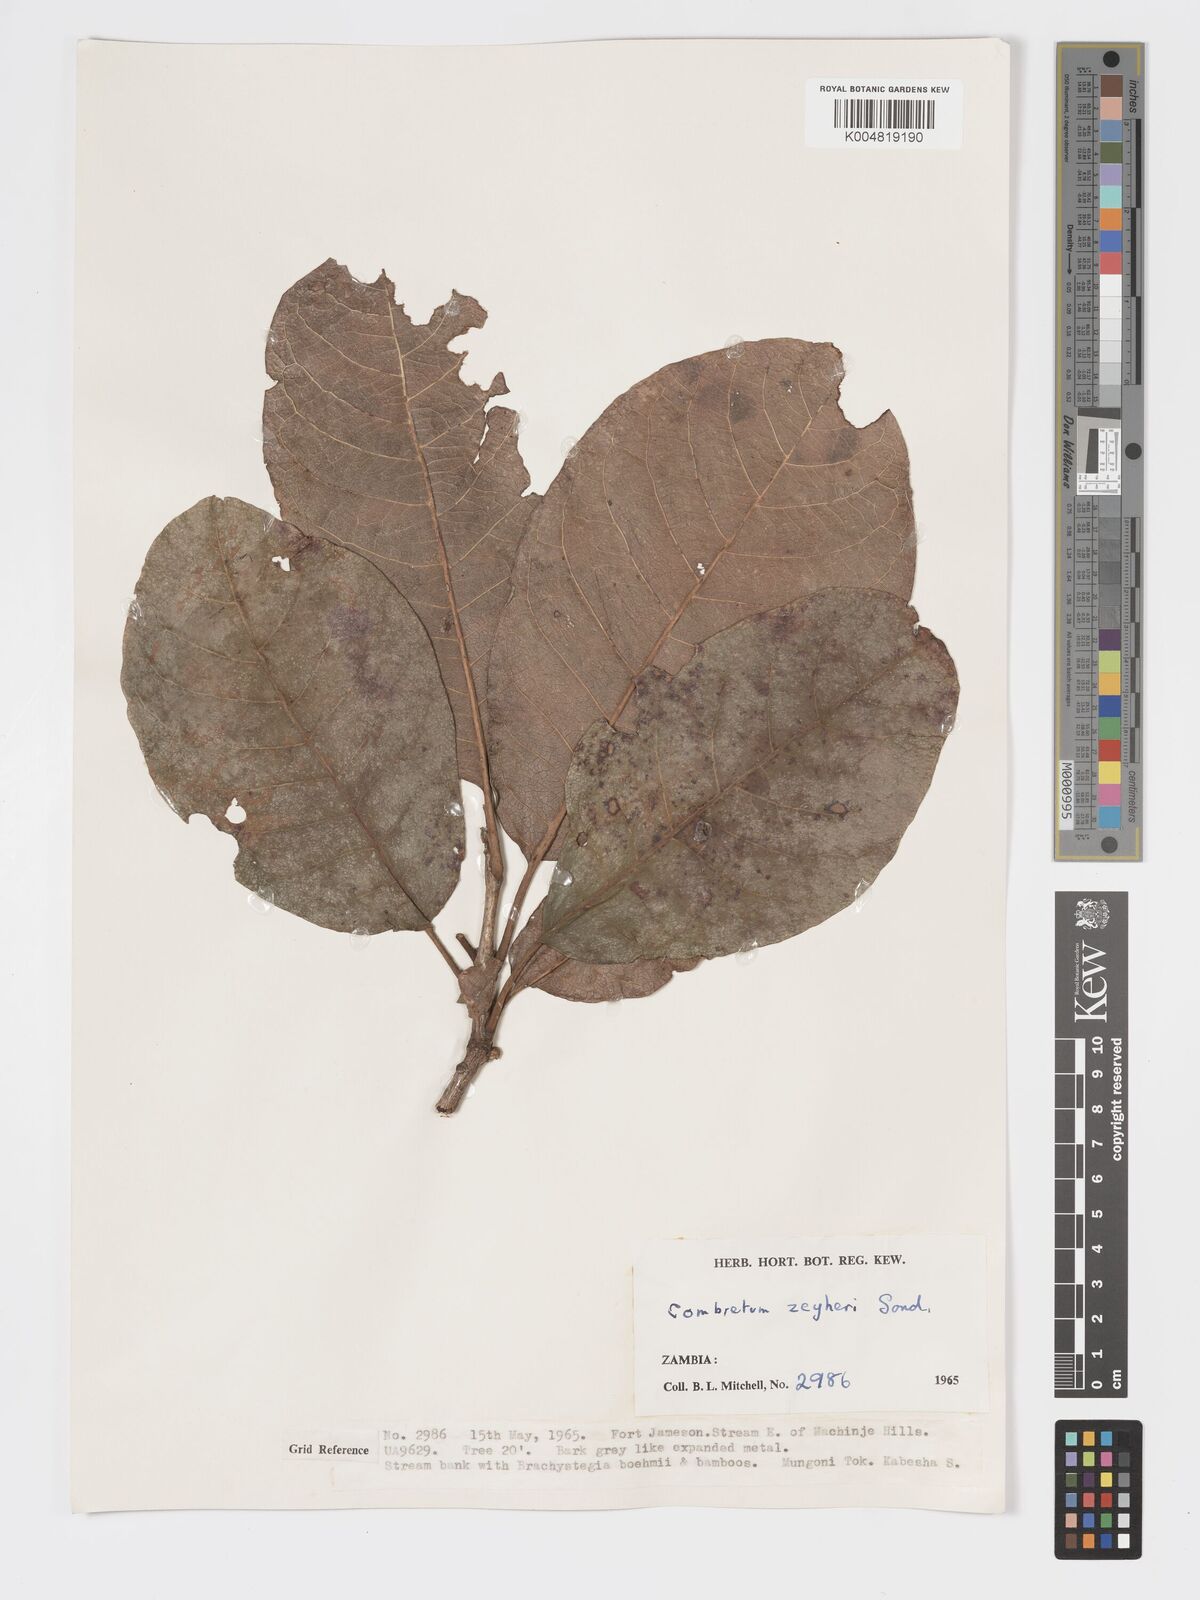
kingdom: Plantae
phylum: Tracheophyta
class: Magnoliopsida
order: Myrtales
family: Combretaceae
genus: Combretum
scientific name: Combretum zeyheri
